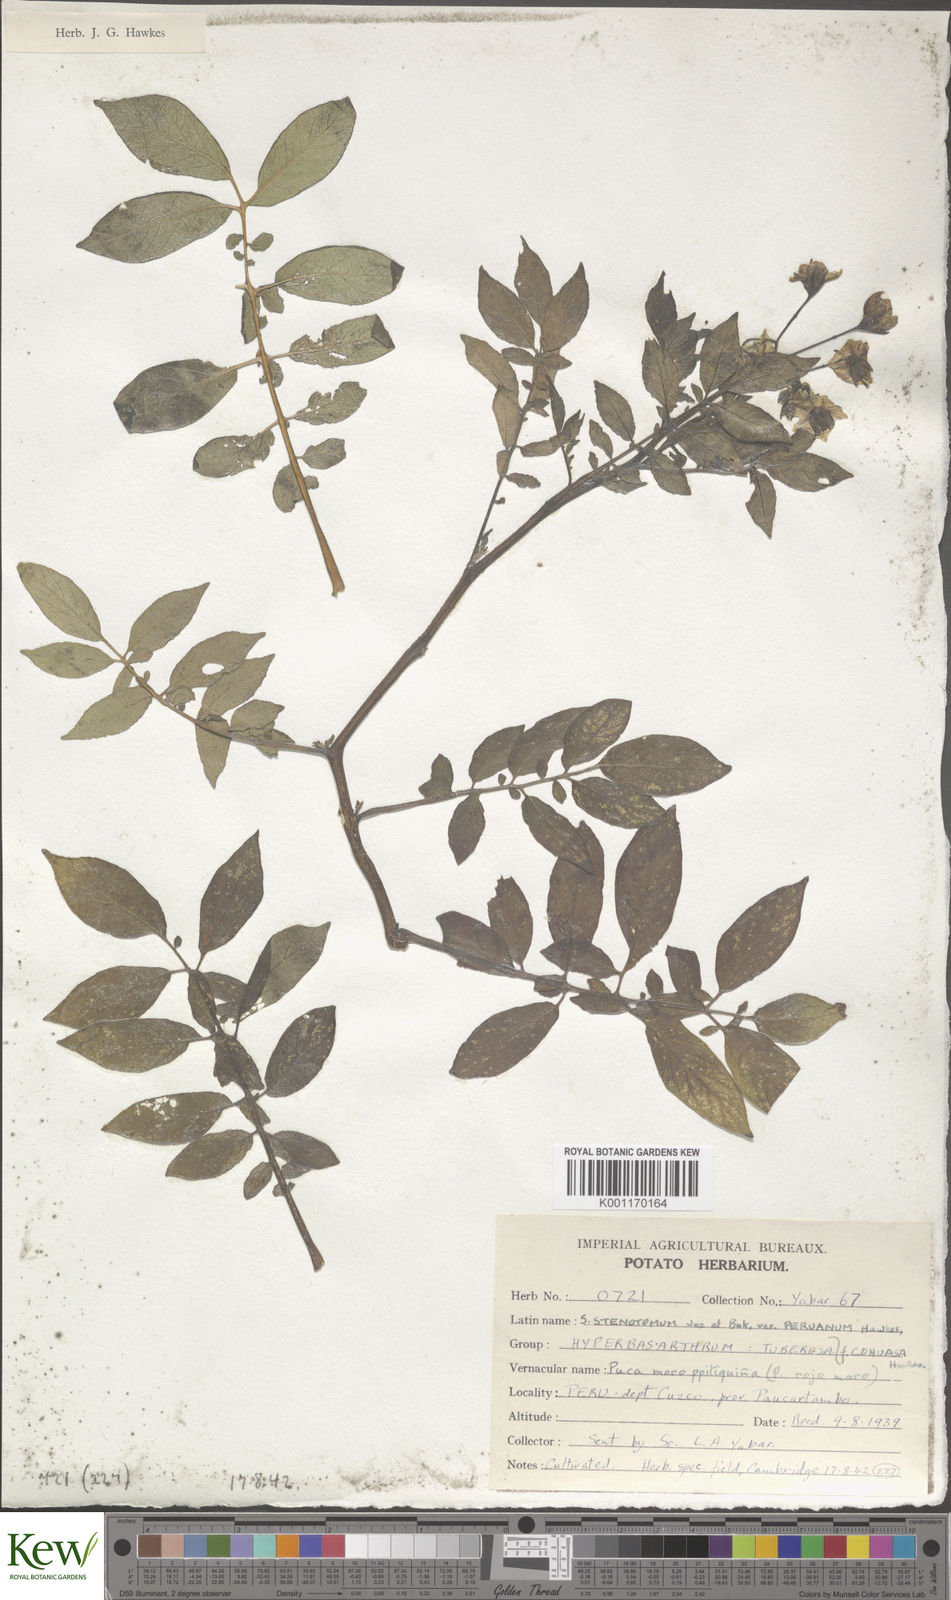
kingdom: Plantae
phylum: Tracheophyta
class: Magnoliopsida
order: Solanales
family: Solanaceae
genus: Solanum
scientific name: Solanum tuberosum
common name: Potato
